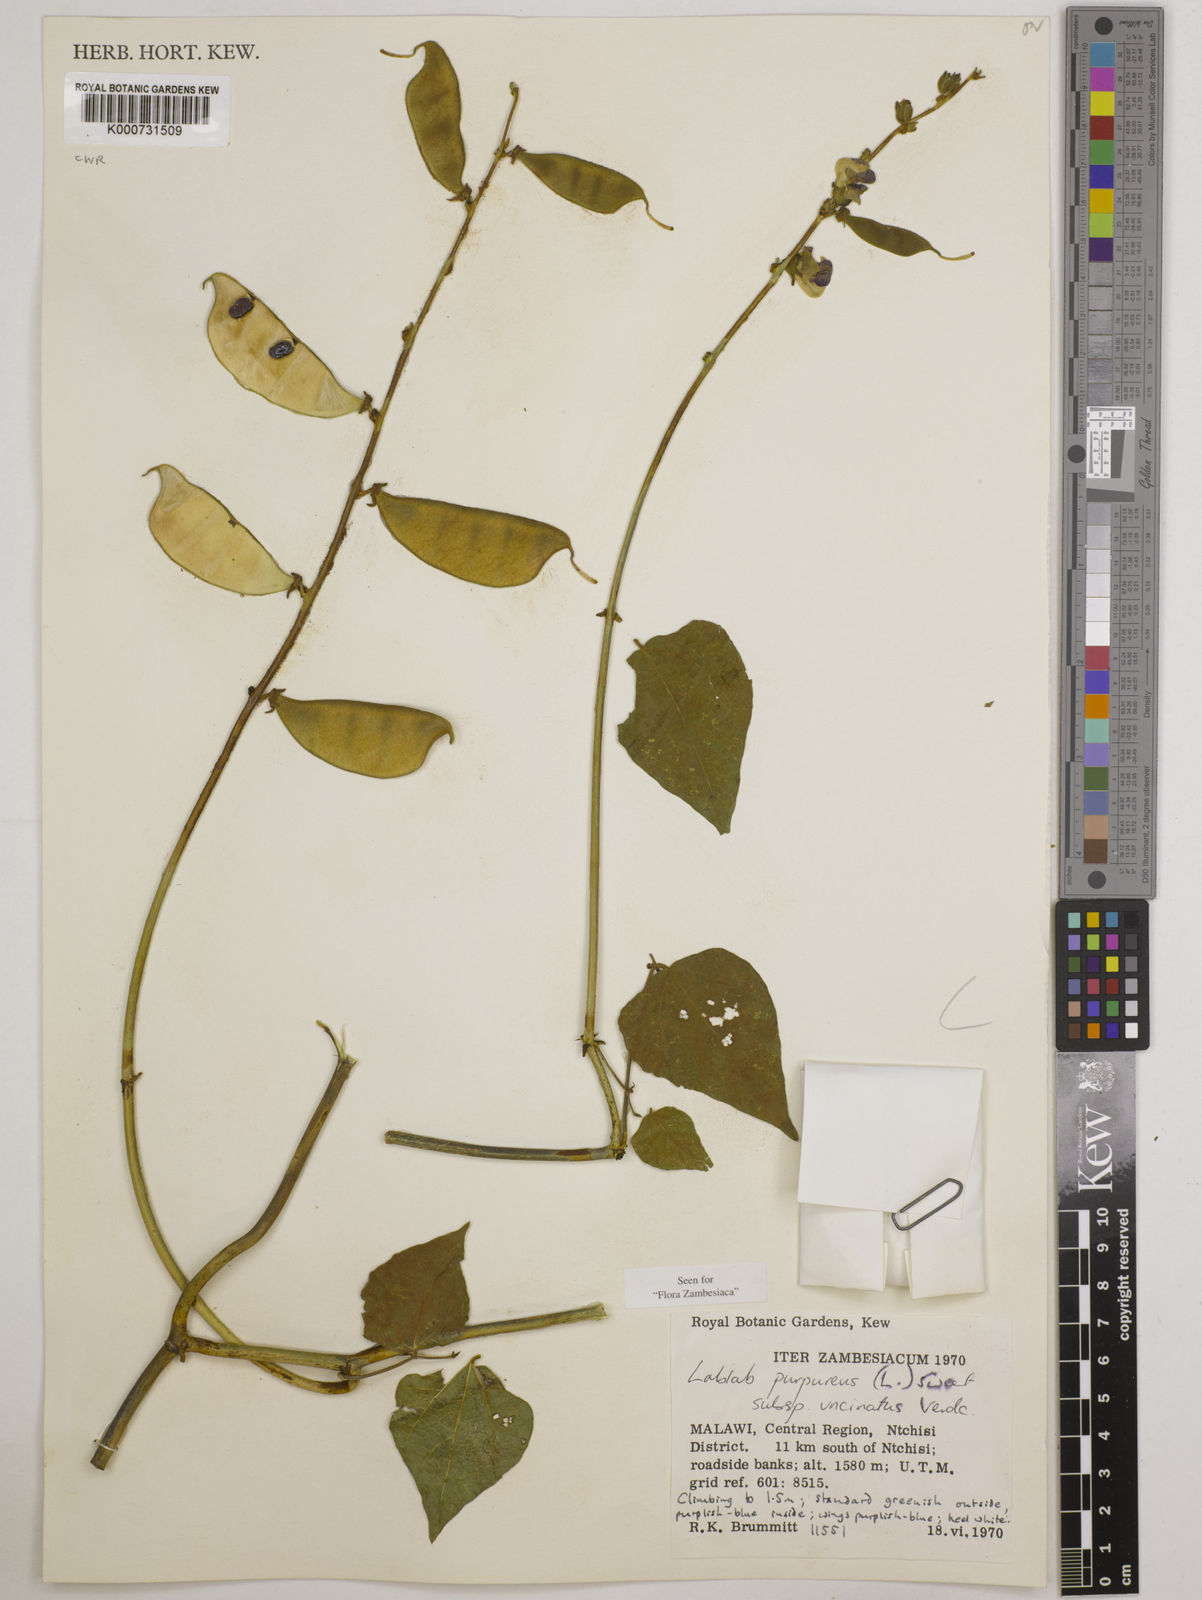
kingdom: Plantae
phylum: Tracheophyta
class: Magnoliopsida
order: Fabales
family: Fabaceae
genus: Lablab
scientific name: Lablab purpureus
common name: Lablab-bean
